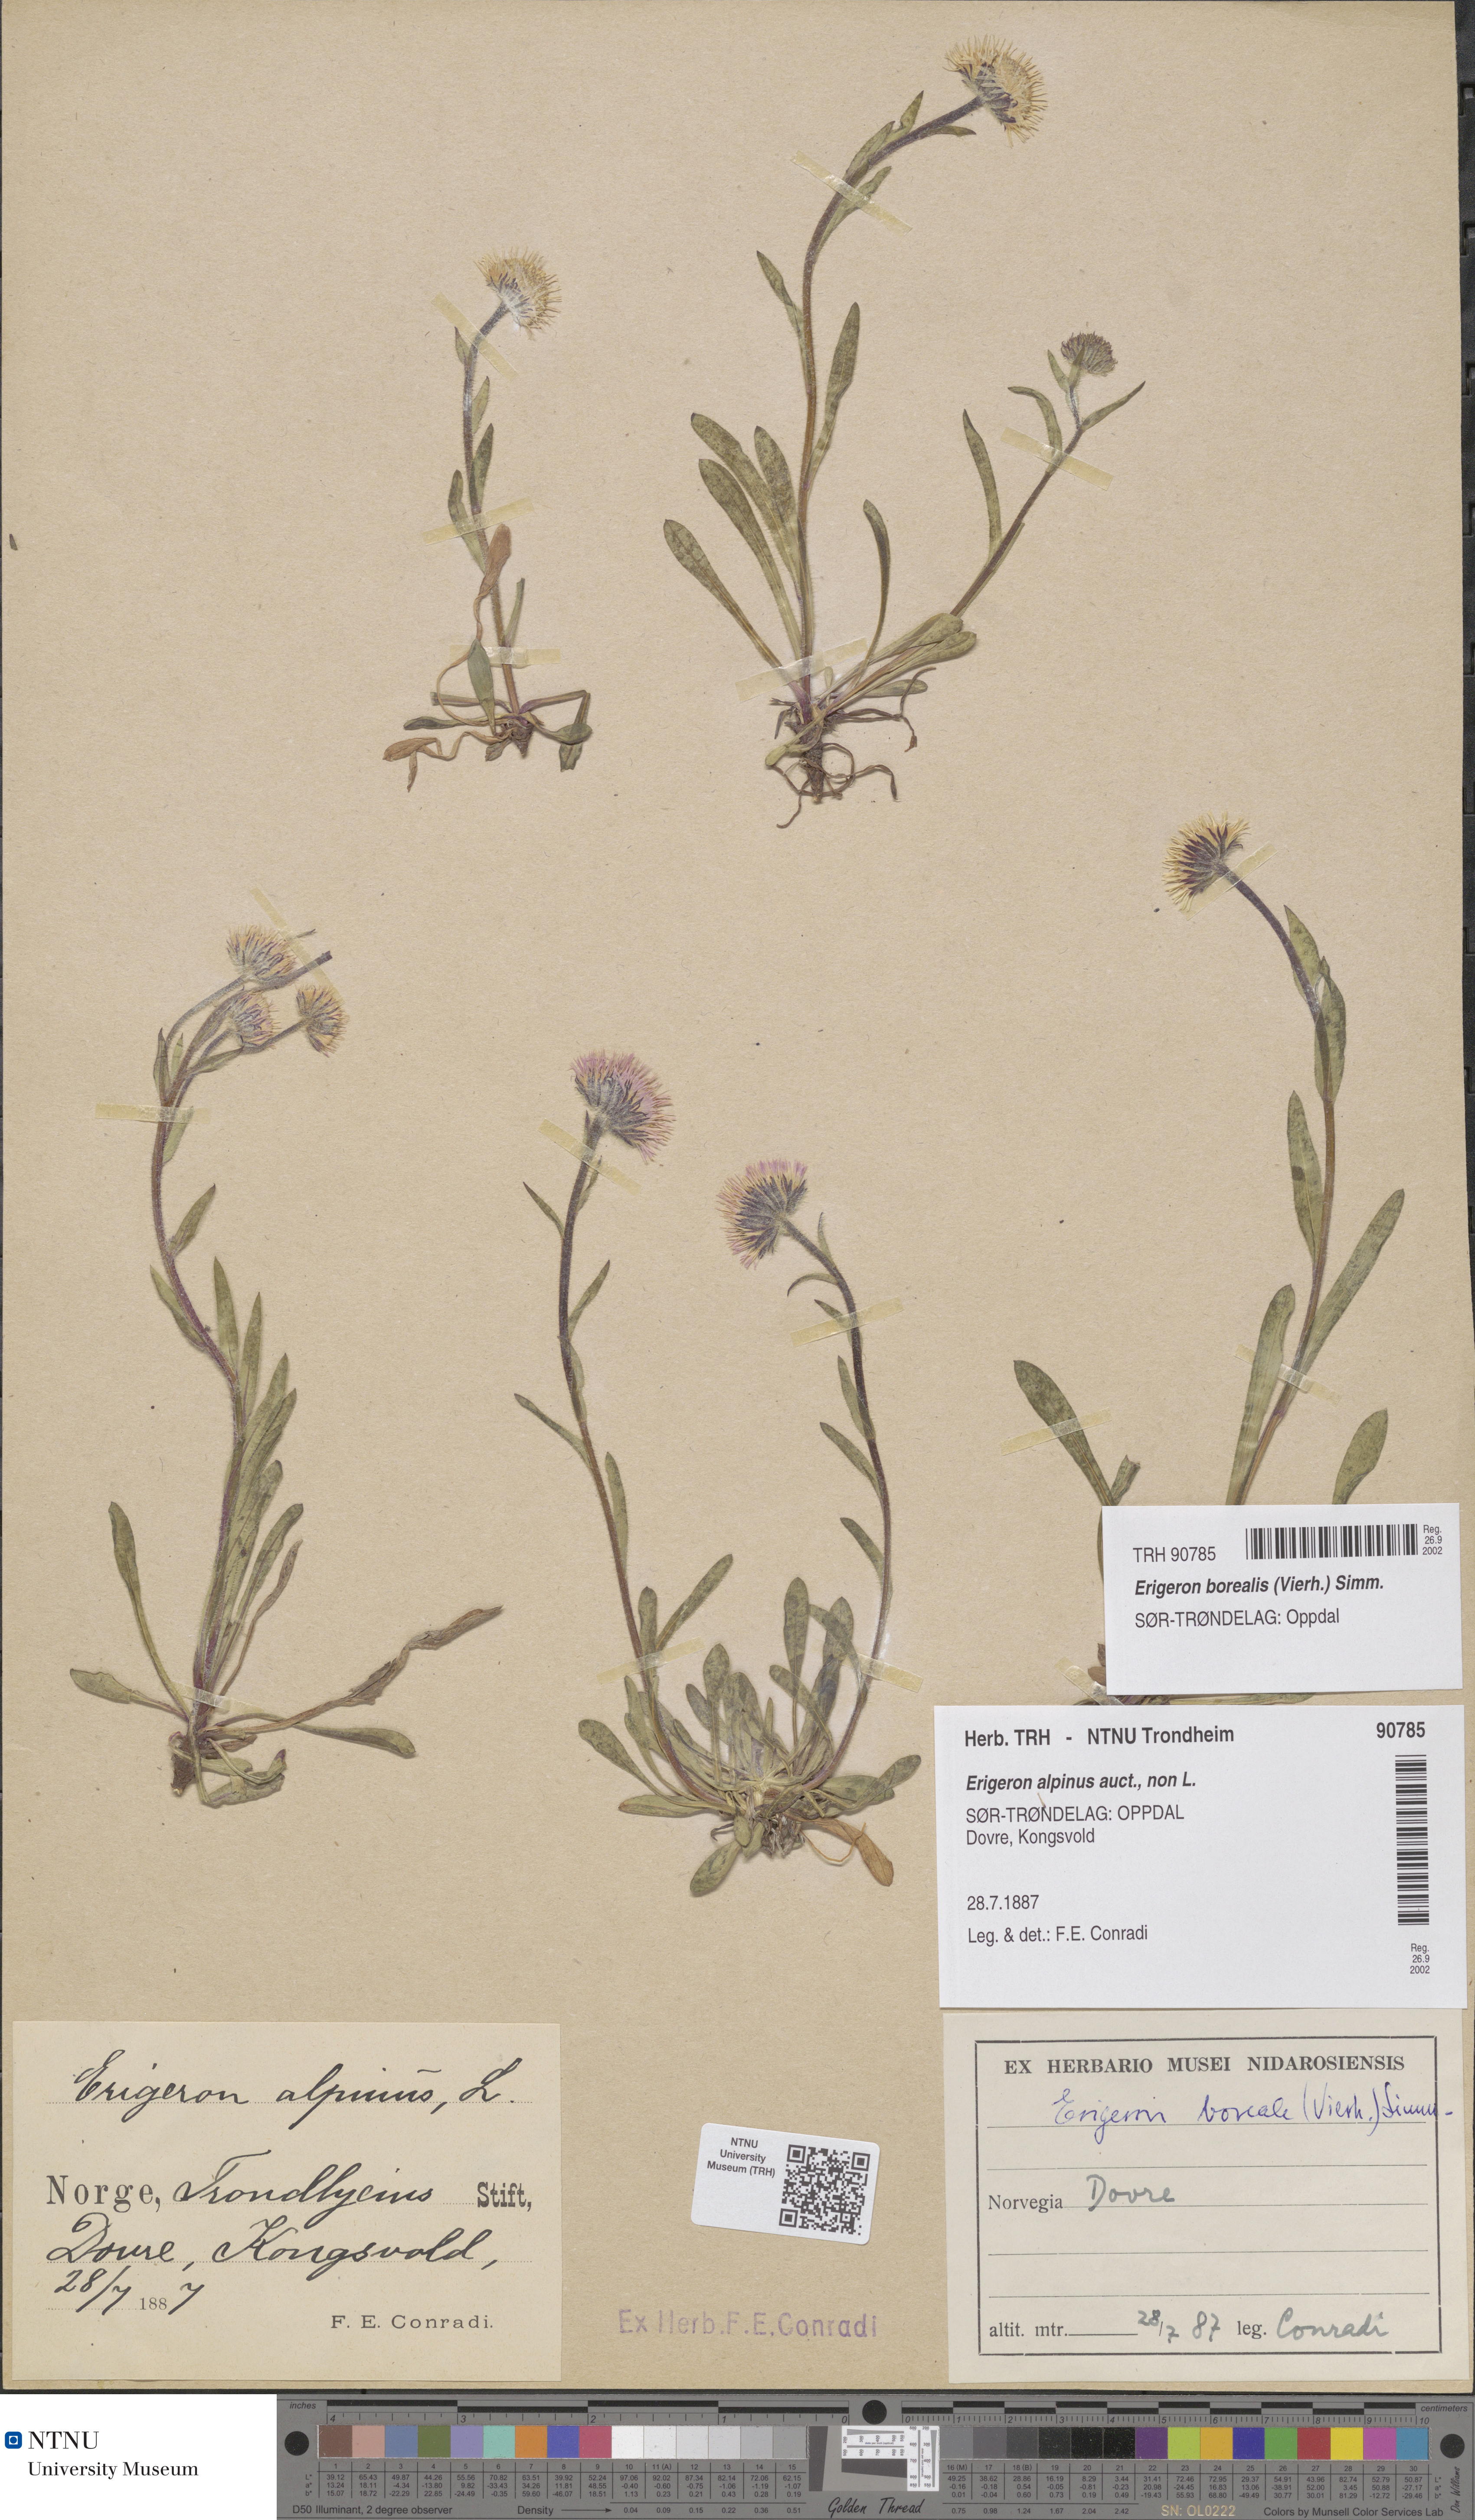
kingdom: Plantae
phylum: Tracheophyta
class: Magnoliopsida
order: Asterales
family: Asteraceae
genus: Erigeron
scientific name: Erigeron borealis
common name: Alpine fleabane
